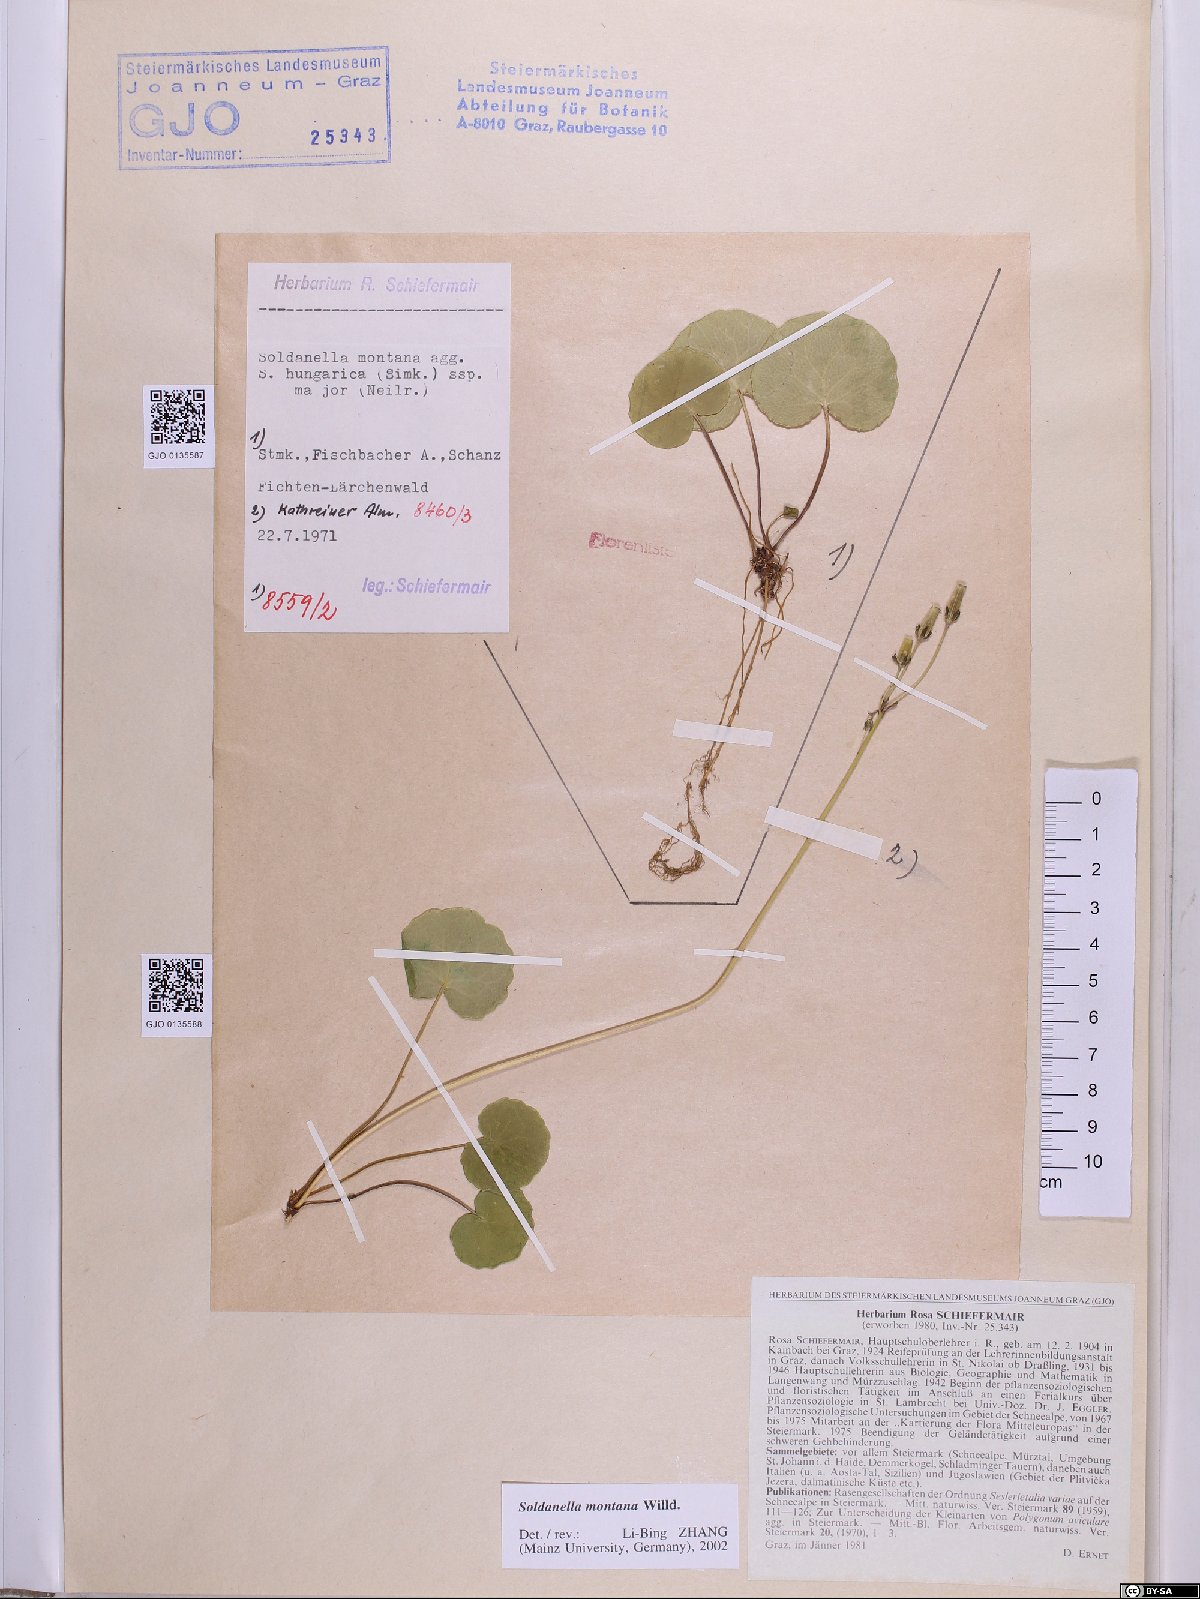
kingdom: Plantae
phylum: Tracheophyta
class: Magnoliopsida
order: Ericales
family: Primulaceae
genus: Soldanella
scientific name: Soldanella montana
